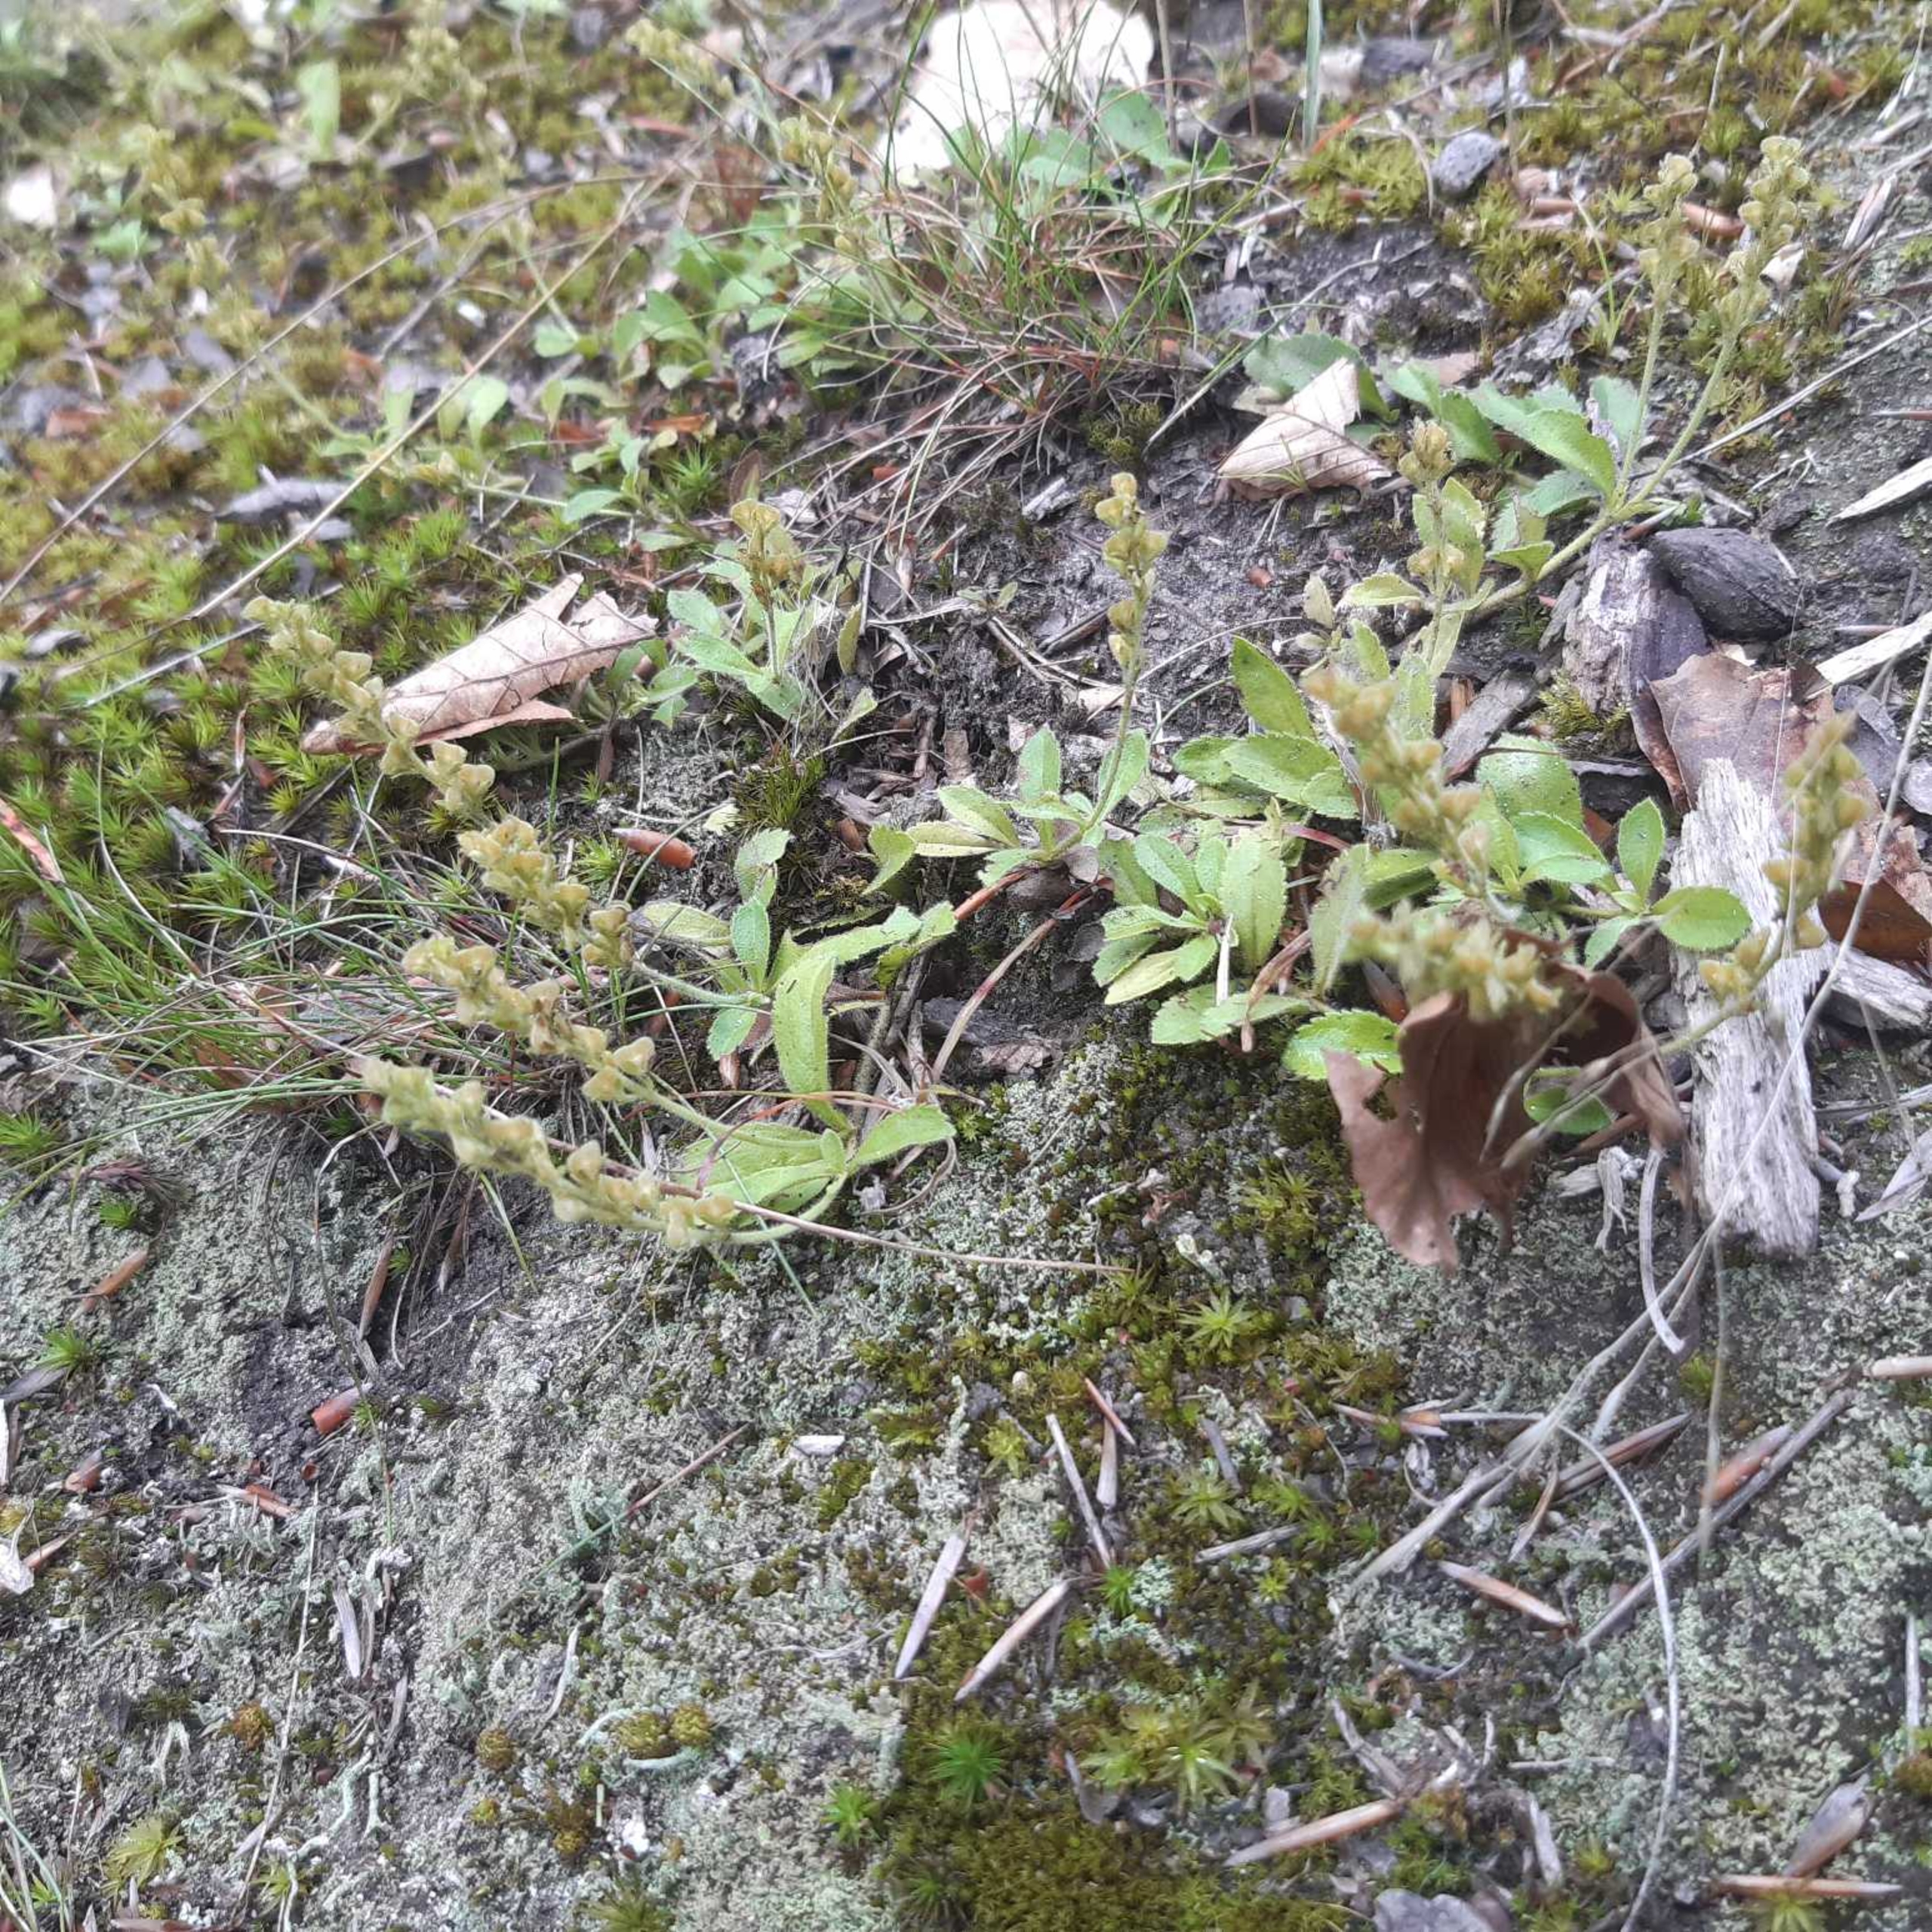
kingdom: Plantae
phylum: Tracheophyta
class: Magnoliopsida
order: Lamiales
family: Plantaginaceae
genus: Veronica
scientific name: Veronica officinalis
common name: Læge-ærenpris
